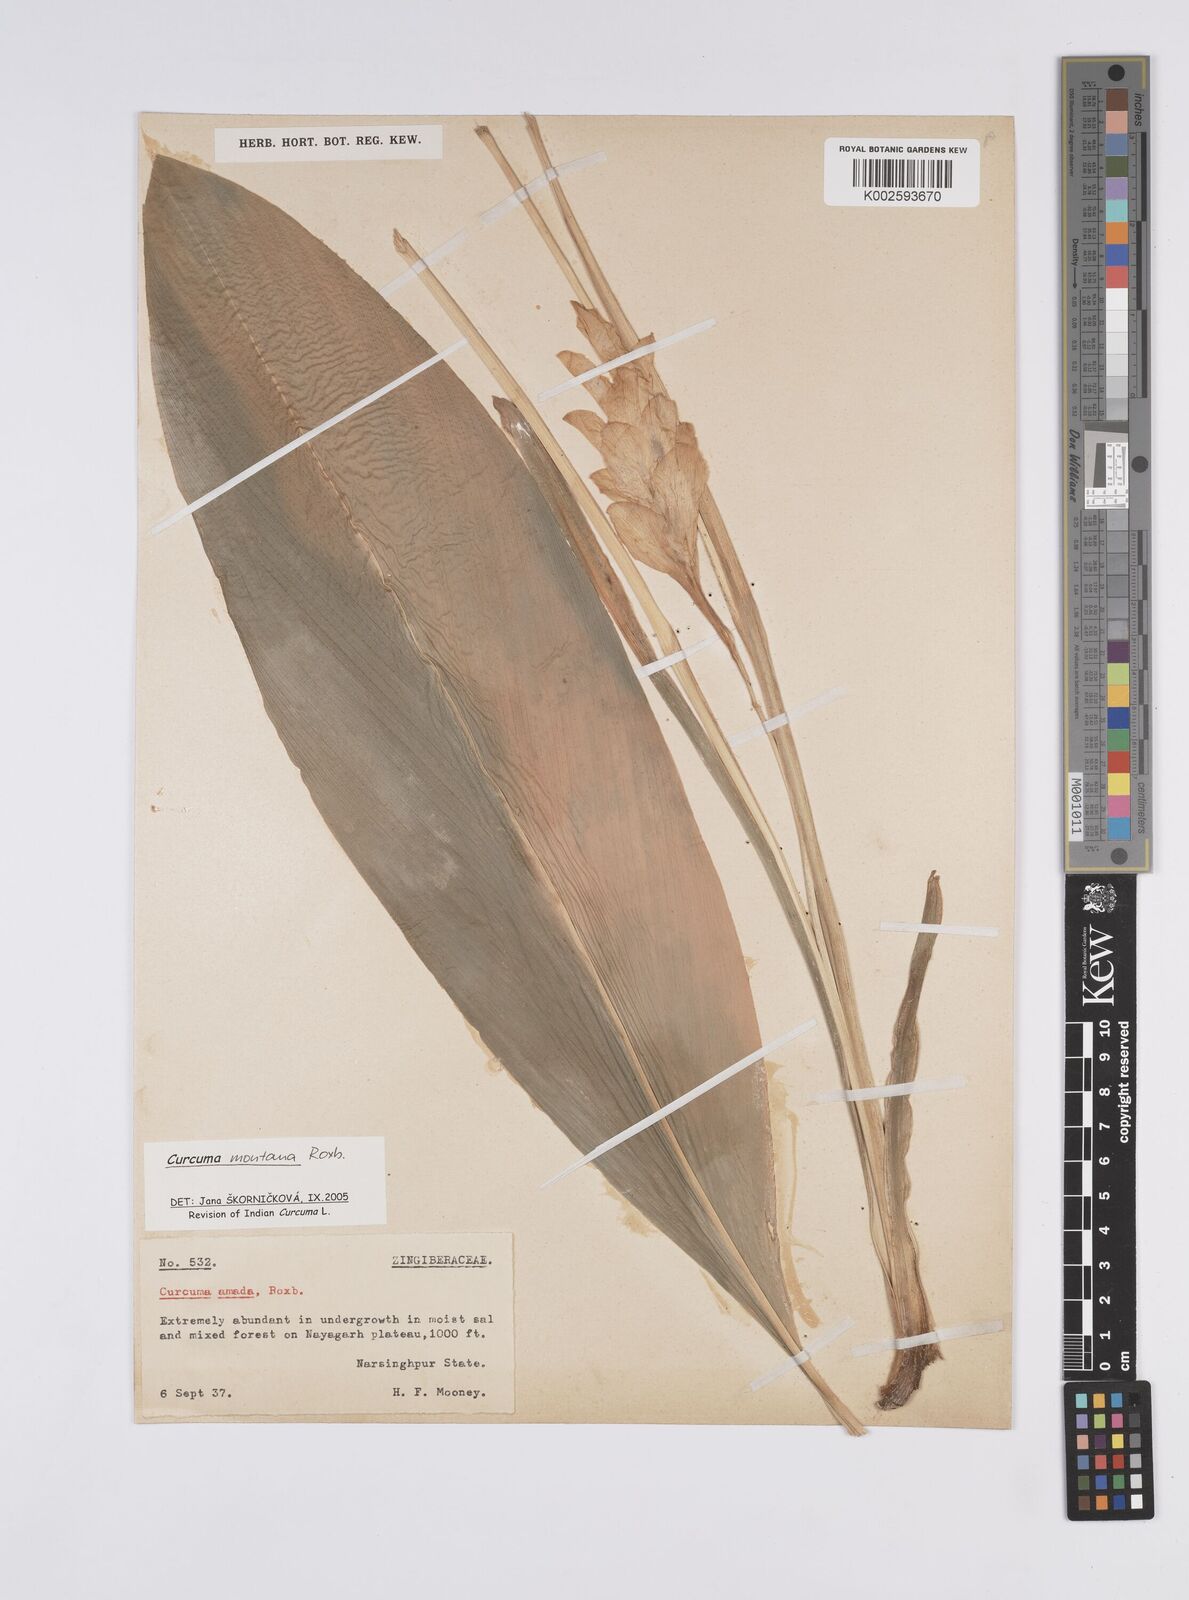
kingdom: Plantae
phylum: Tracheophyta
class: Liliopsida
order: Zingiberales
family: Zingiberaceae
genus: Curcuma
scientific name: Curcuma montana
